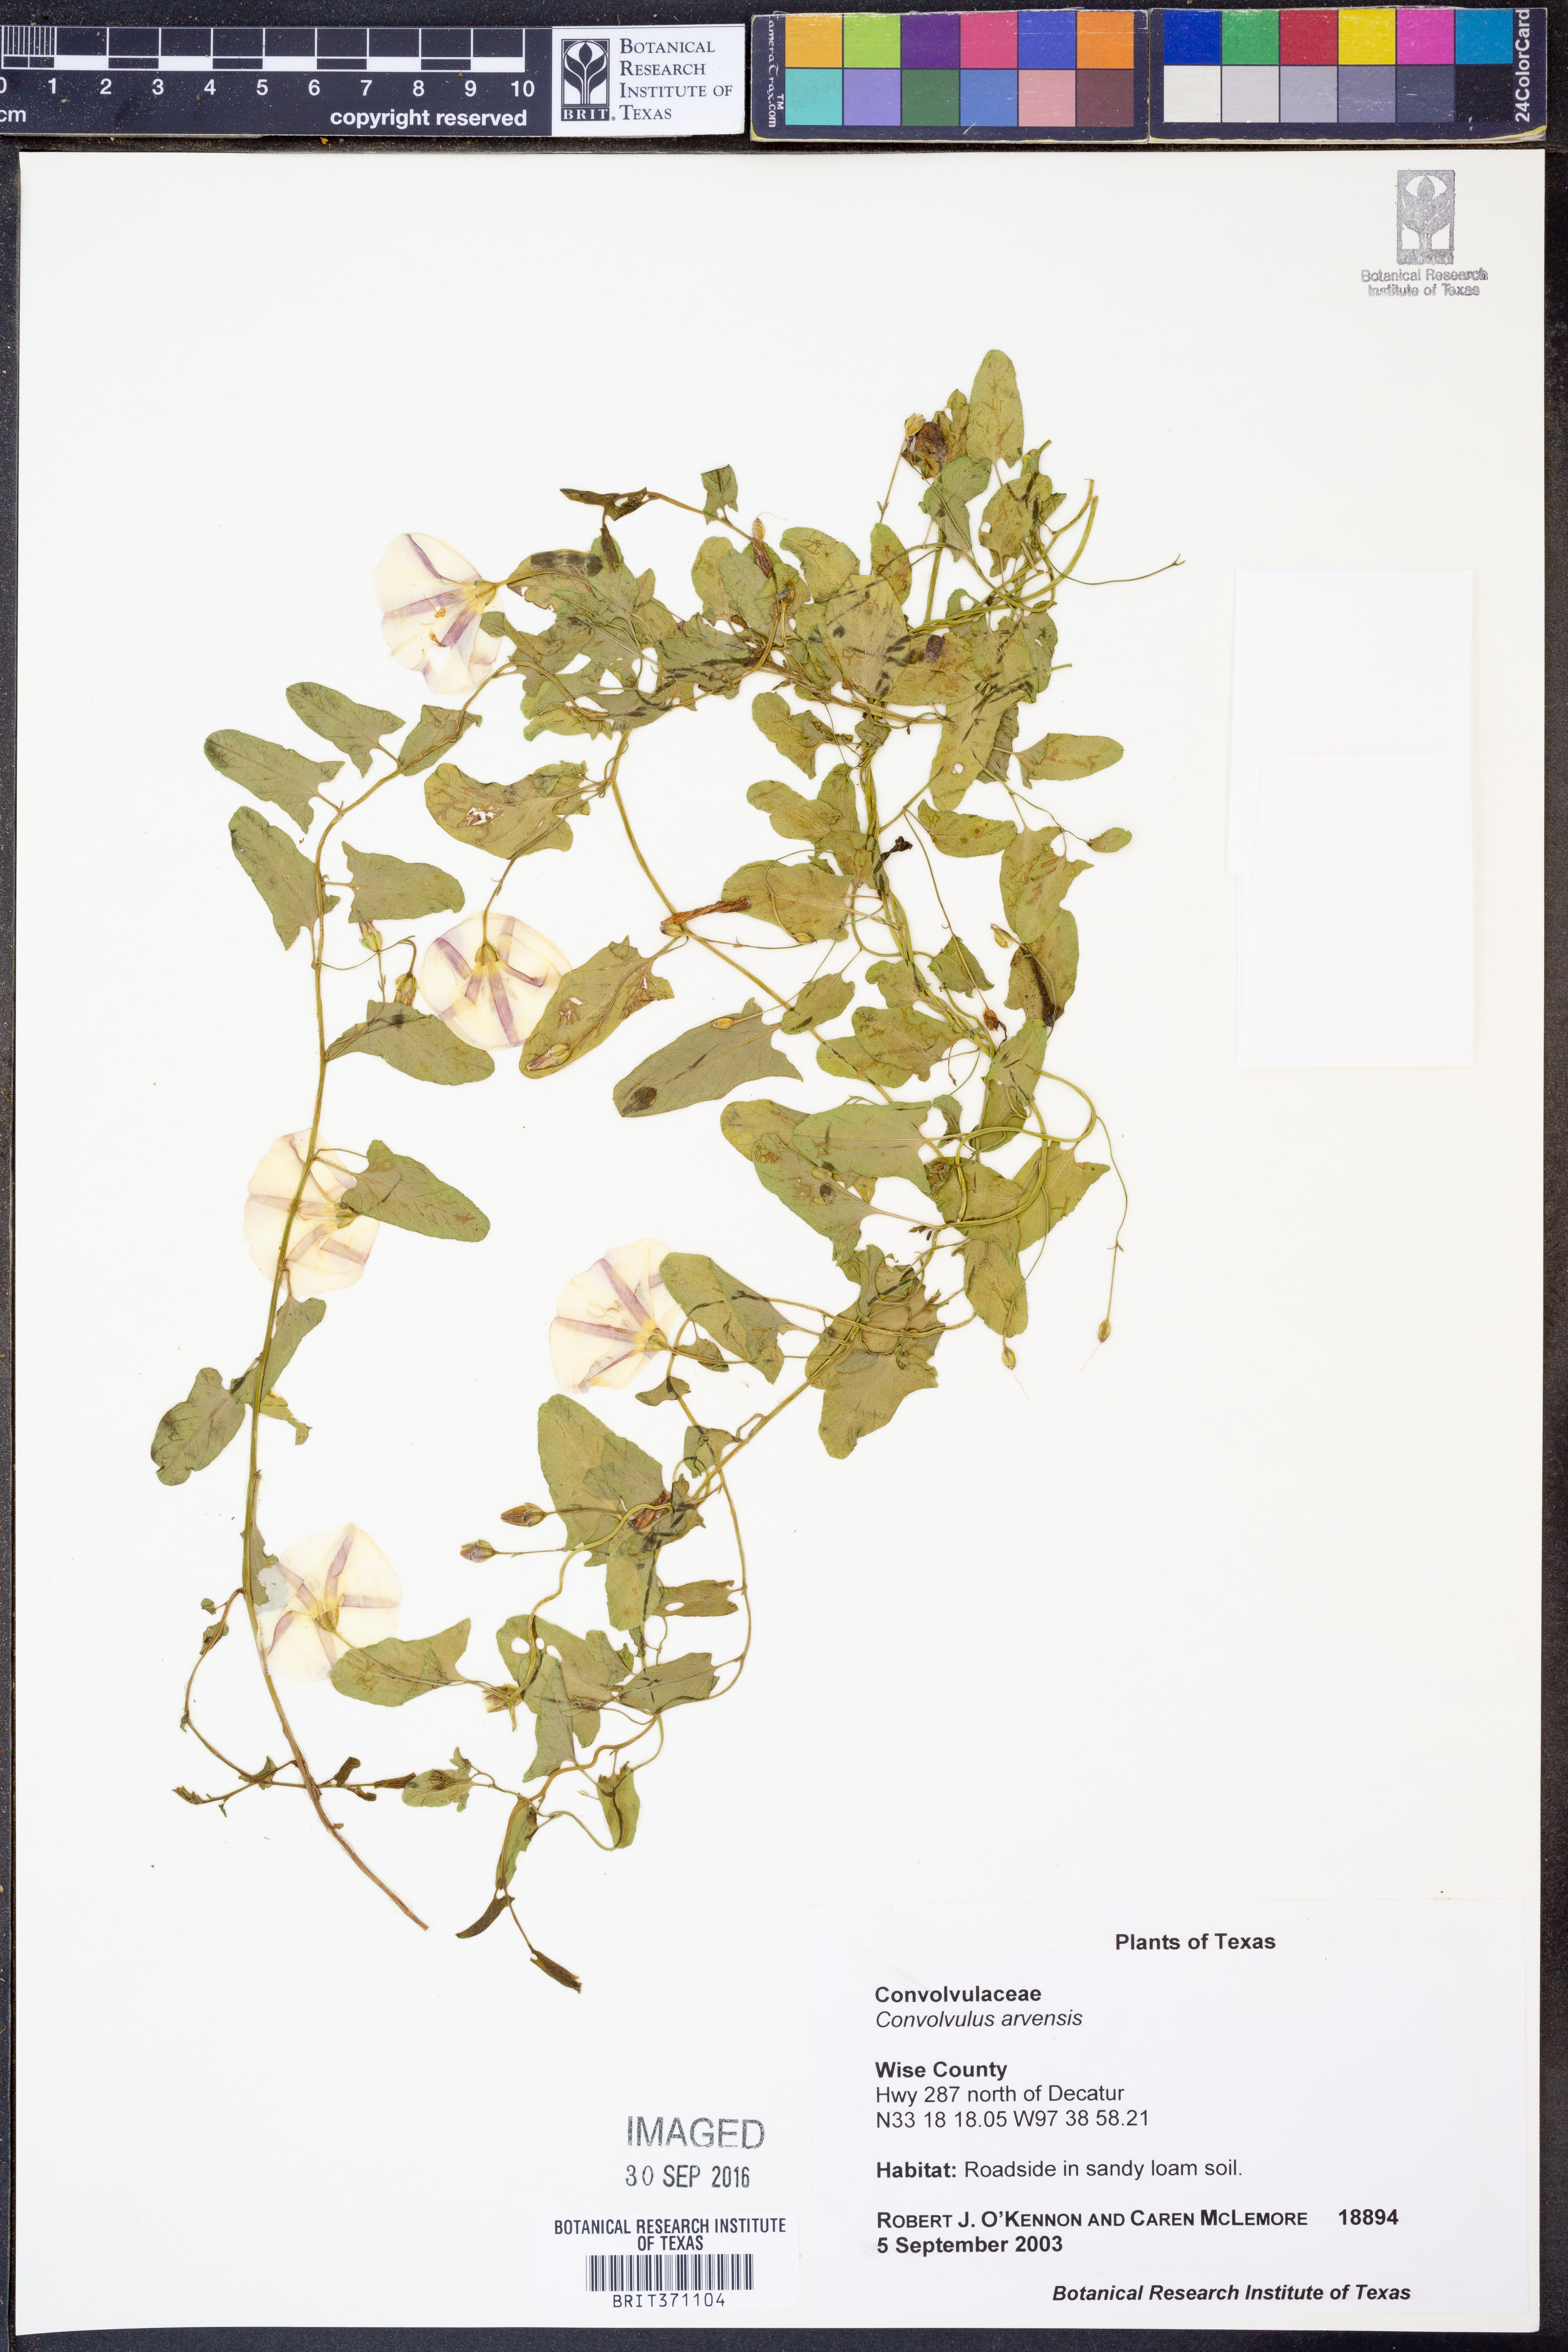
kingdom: Plantae
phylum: Tracheophyta
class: Magnoliopsida
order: Solanales
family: Convolvulaceae
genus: Convolvulus
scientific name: Convolvulus arvensis
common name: Field bindweed
